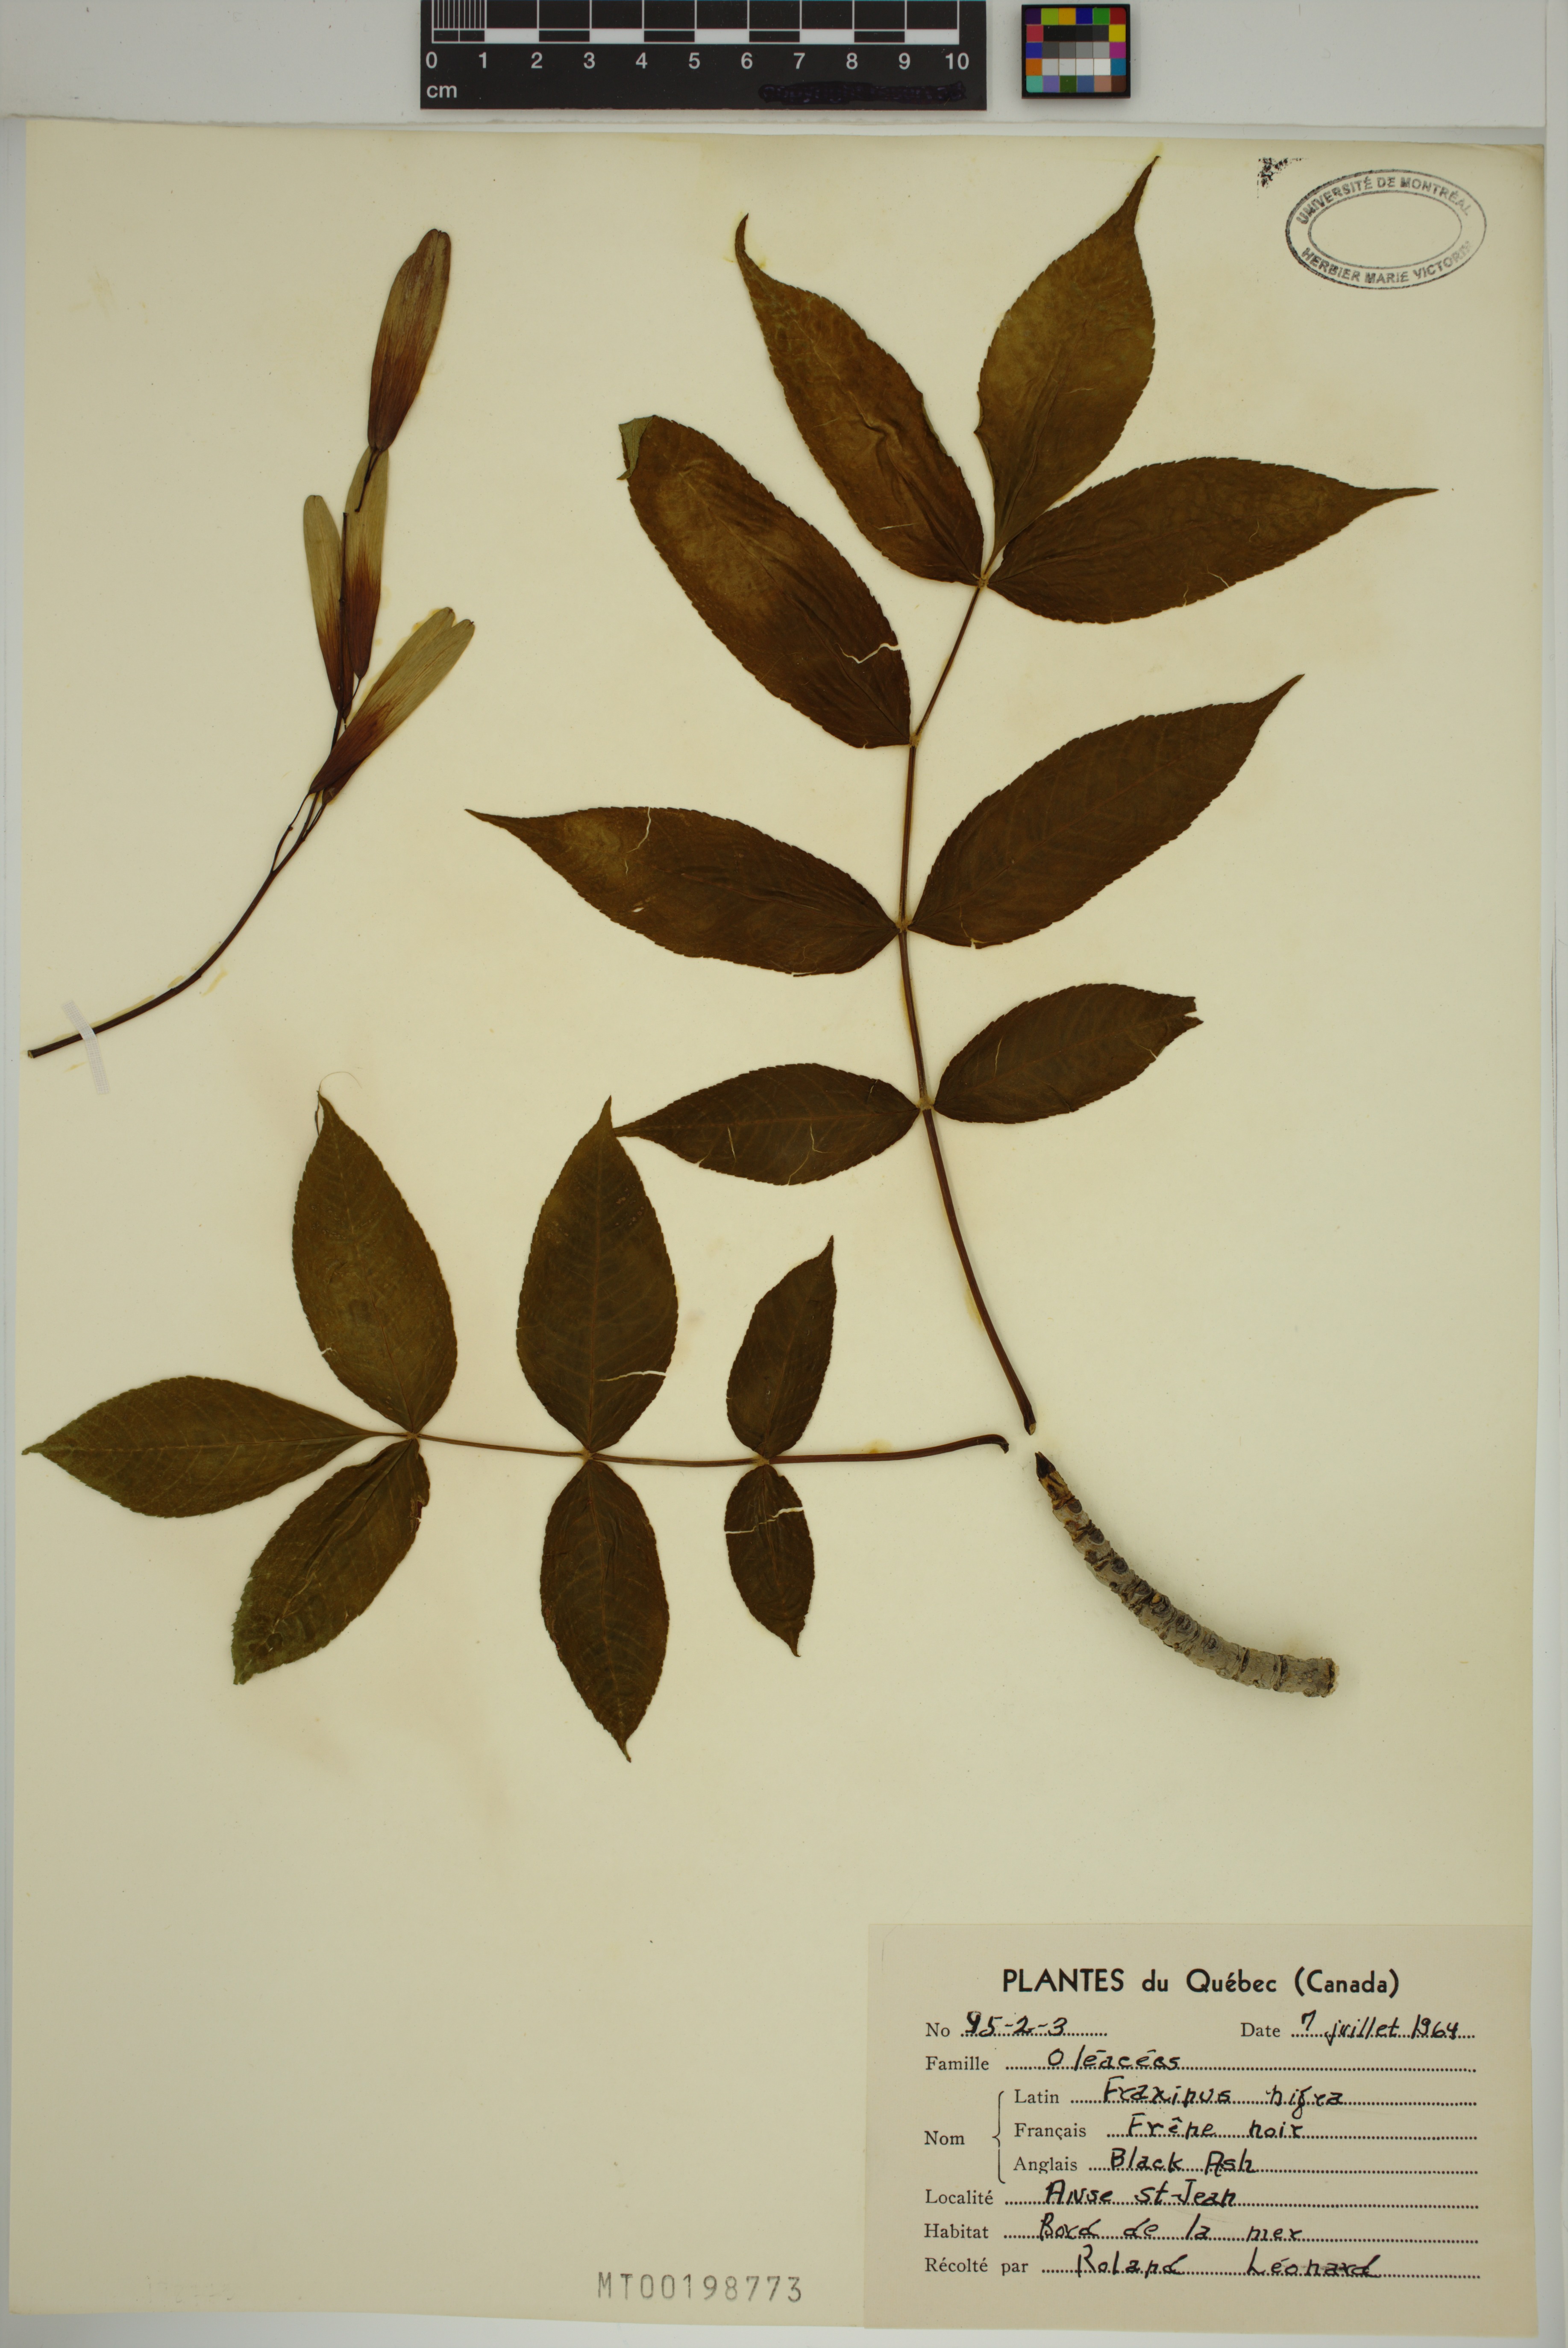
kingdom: Plantae
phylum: Tracheophyta
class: Magnoliopsida
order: Lamiales
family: Oleaceae
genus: Fraxinus
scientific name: Fraxinus nigra
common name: Black ash
